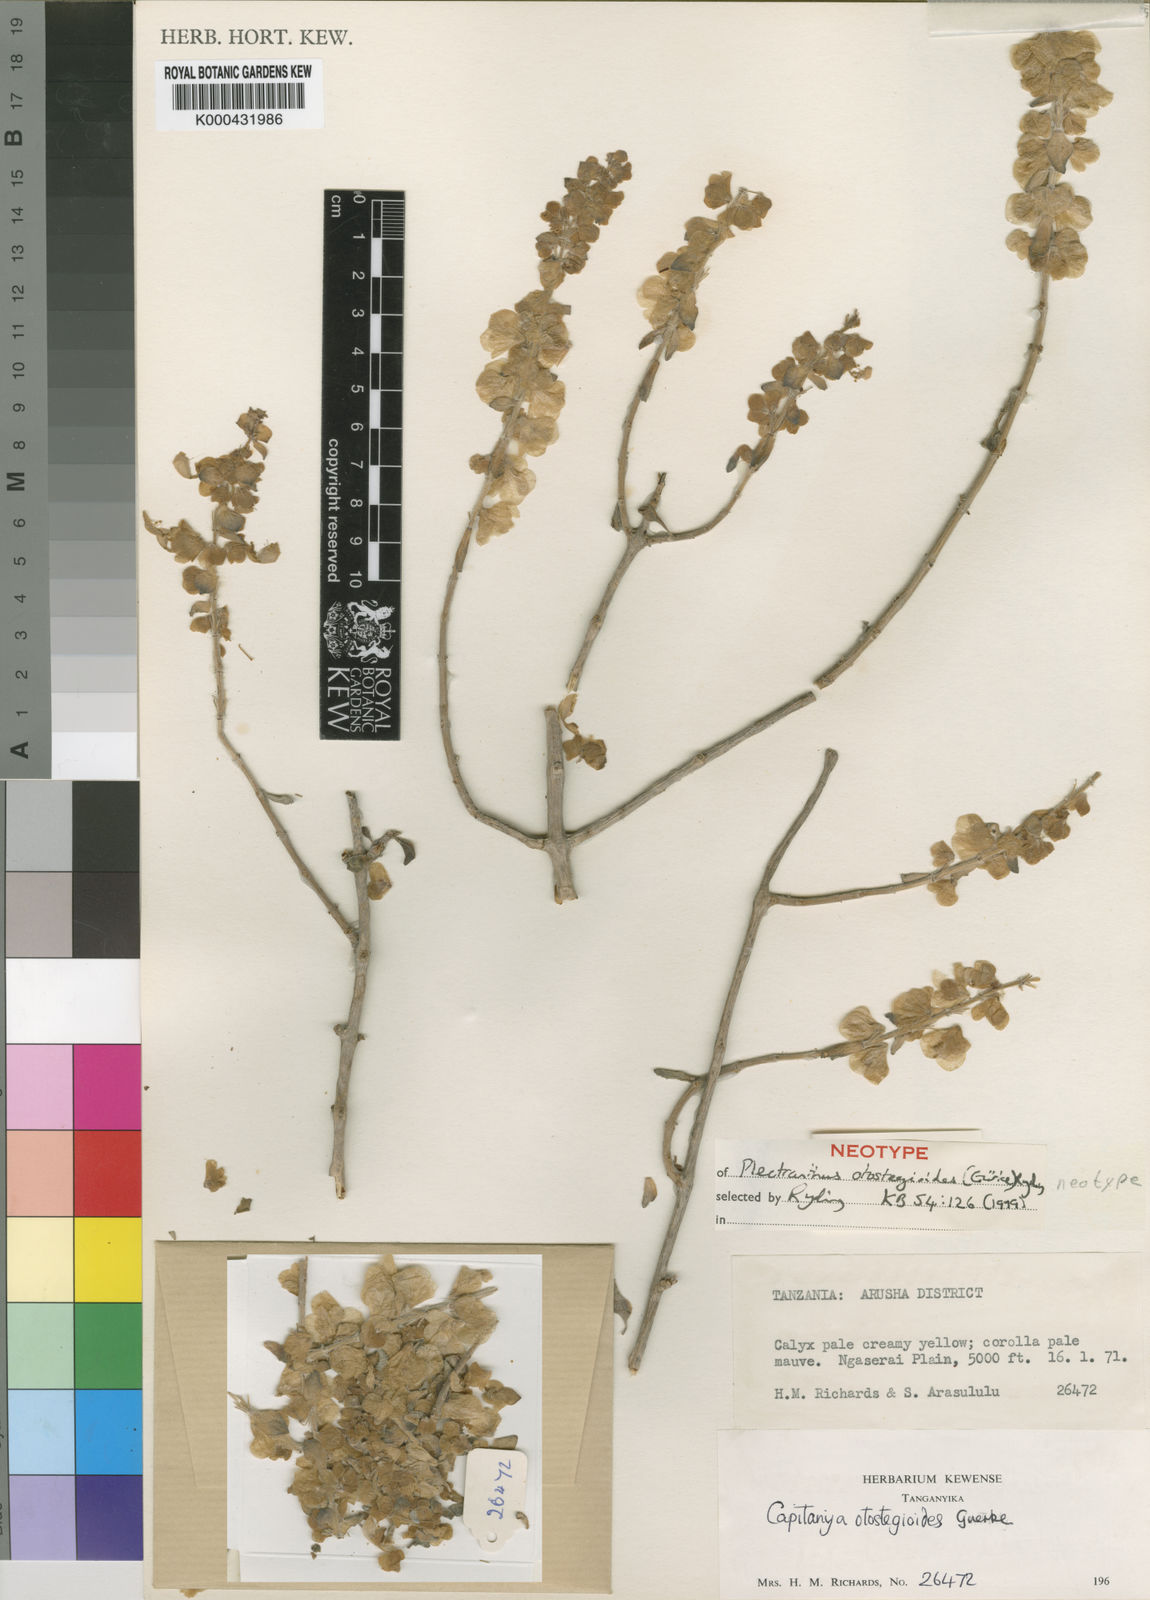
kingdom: Plantae
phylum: Tracheophyta
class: Magnoliopsida
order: Lamiales
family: Lamiaceae
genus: Plectranthus
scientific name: Plectranthus
